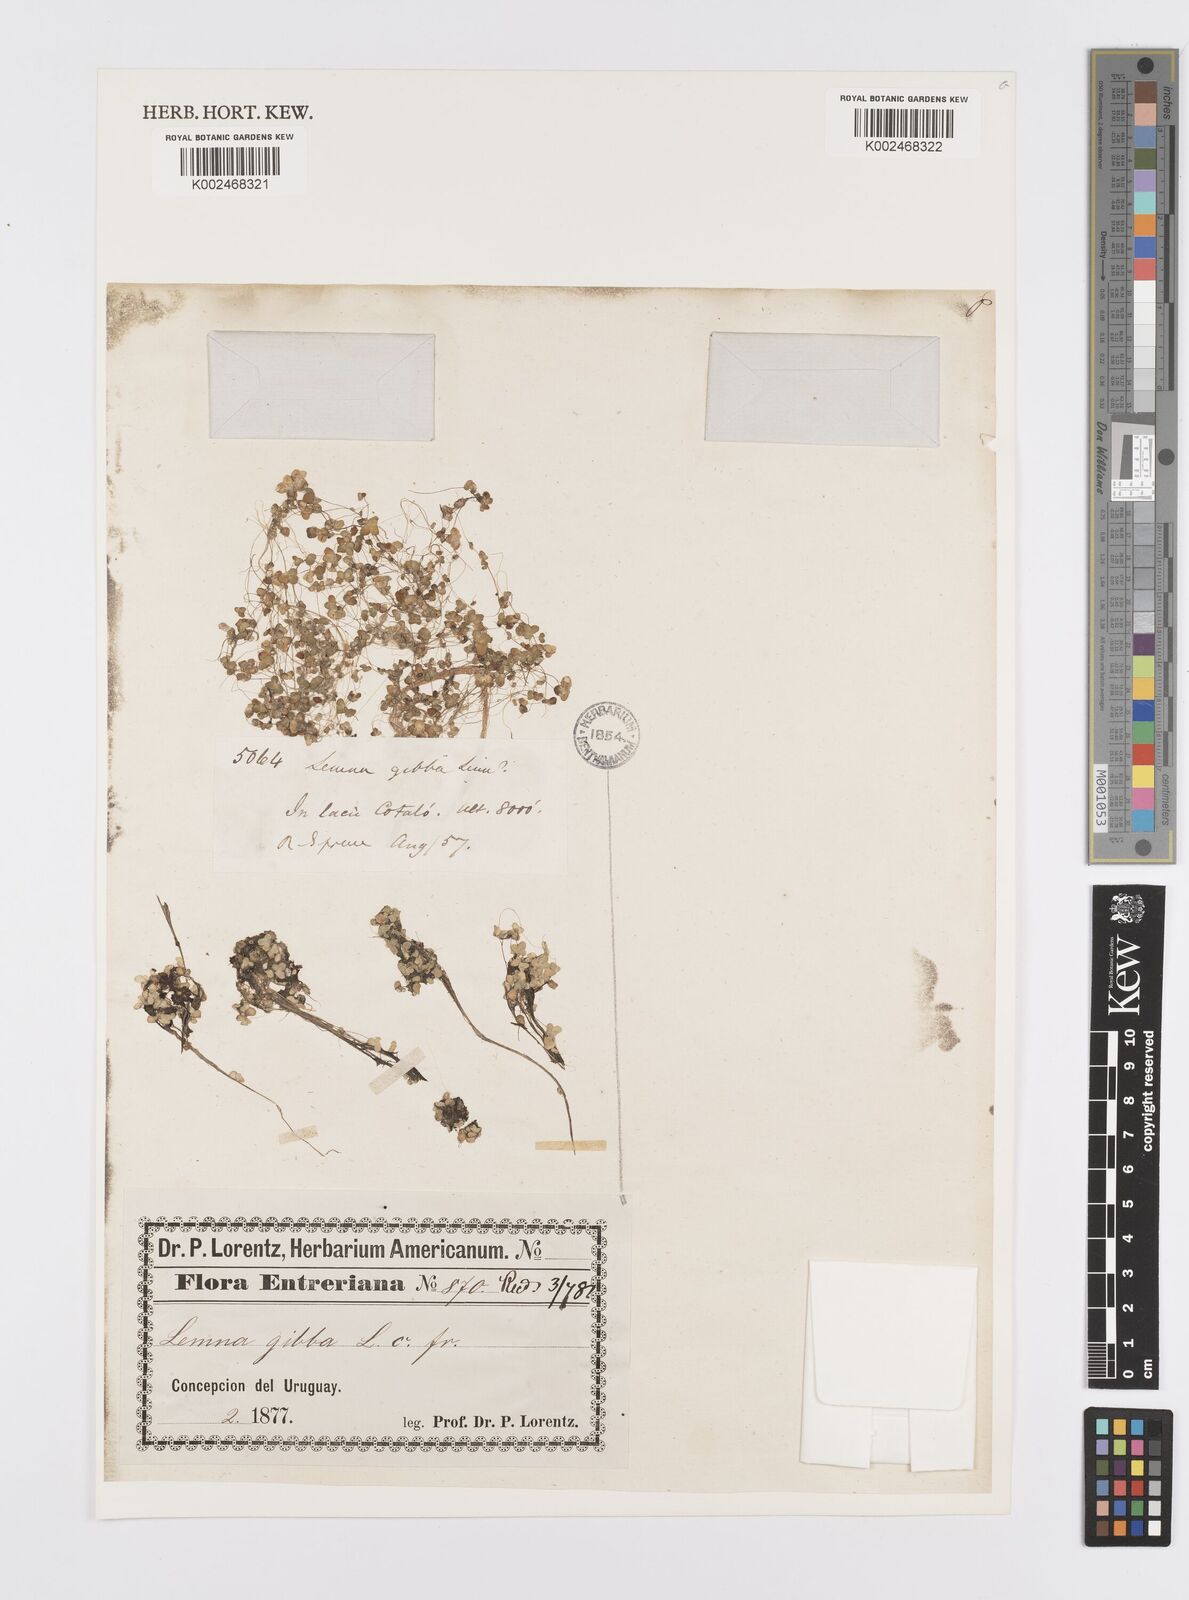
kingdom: Plantae
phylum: Tracheophyta
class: Liliopsida
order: Alismatales
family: Araceae
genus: Lemna
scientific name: Lemna gibba
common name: Fat duckweed
